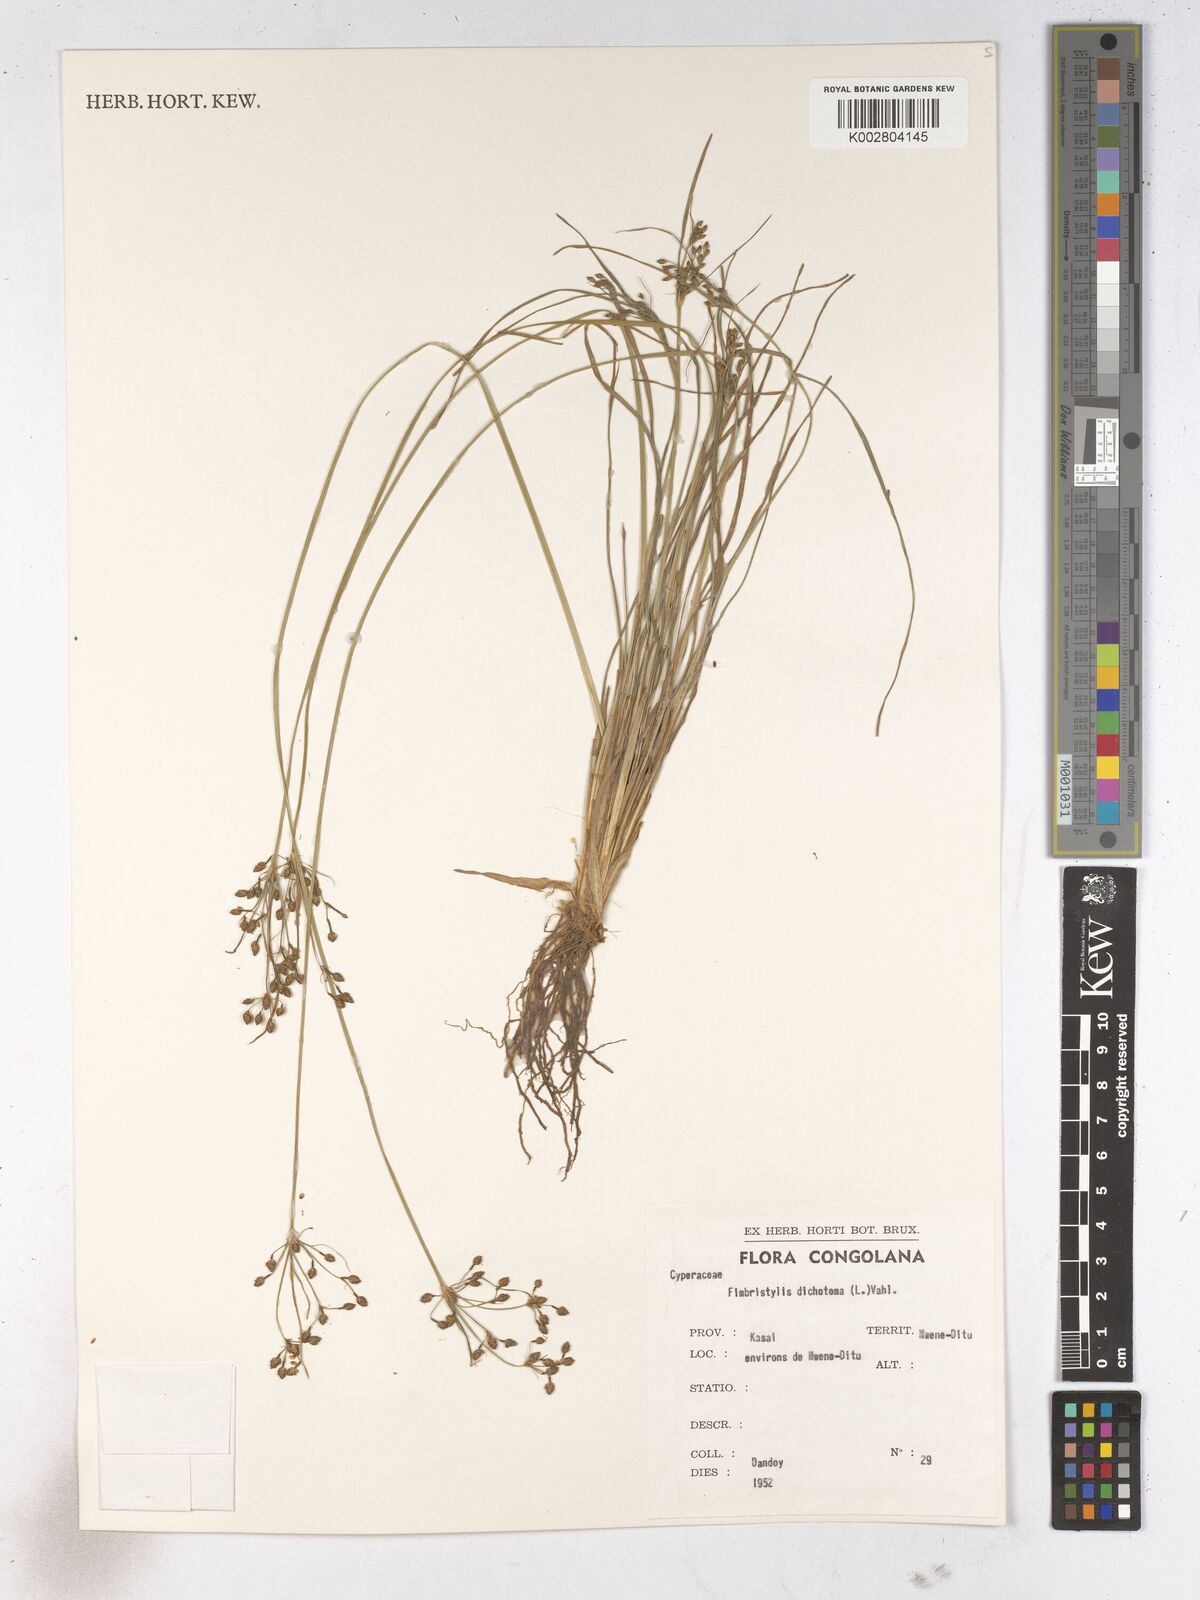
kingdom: Plantae
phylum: Tracheophyta
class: Liliopsida
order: Poales
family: Cyperaceae
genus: Fimbristylis
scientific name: Fimbristylis dichotoma
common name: Forked fimbry
